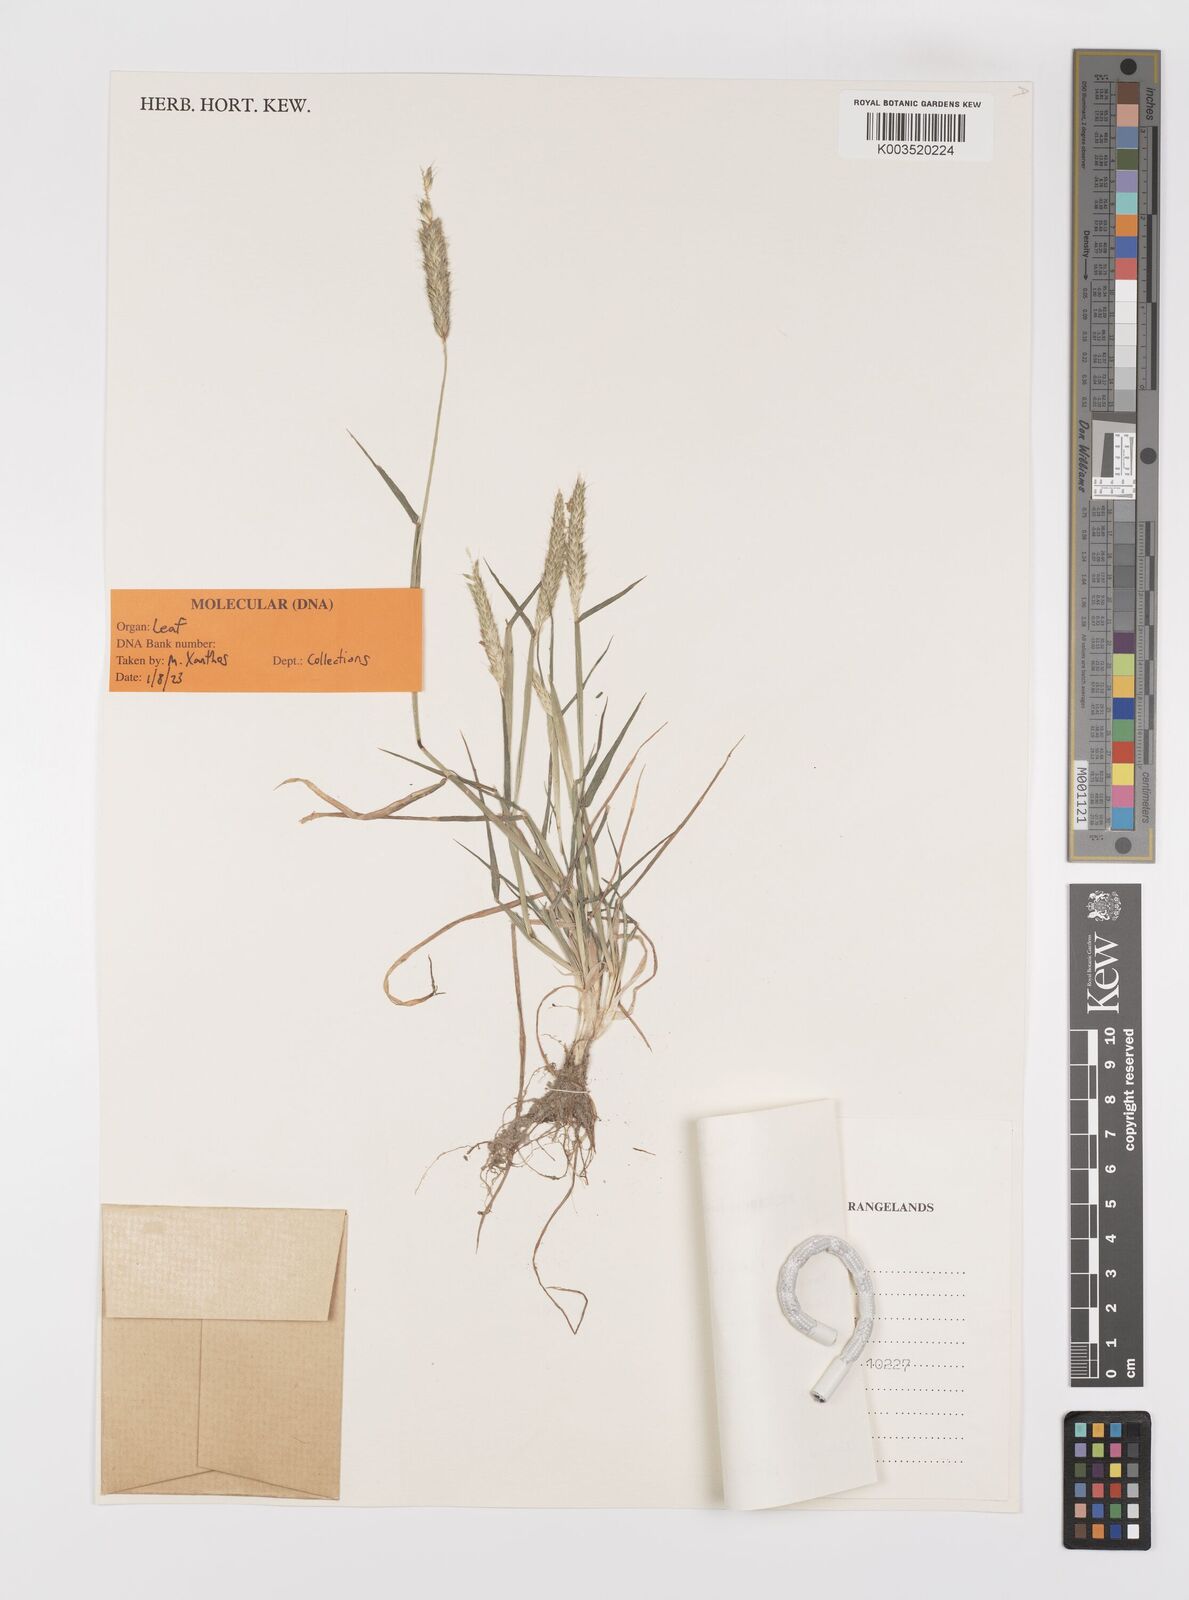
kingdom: Plantae
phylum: Tracheophyta
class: Liliopsida
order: Poales
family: Poaceae
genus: Alopecurus
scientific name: Alopecurus myosuroides
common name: Black-grass
